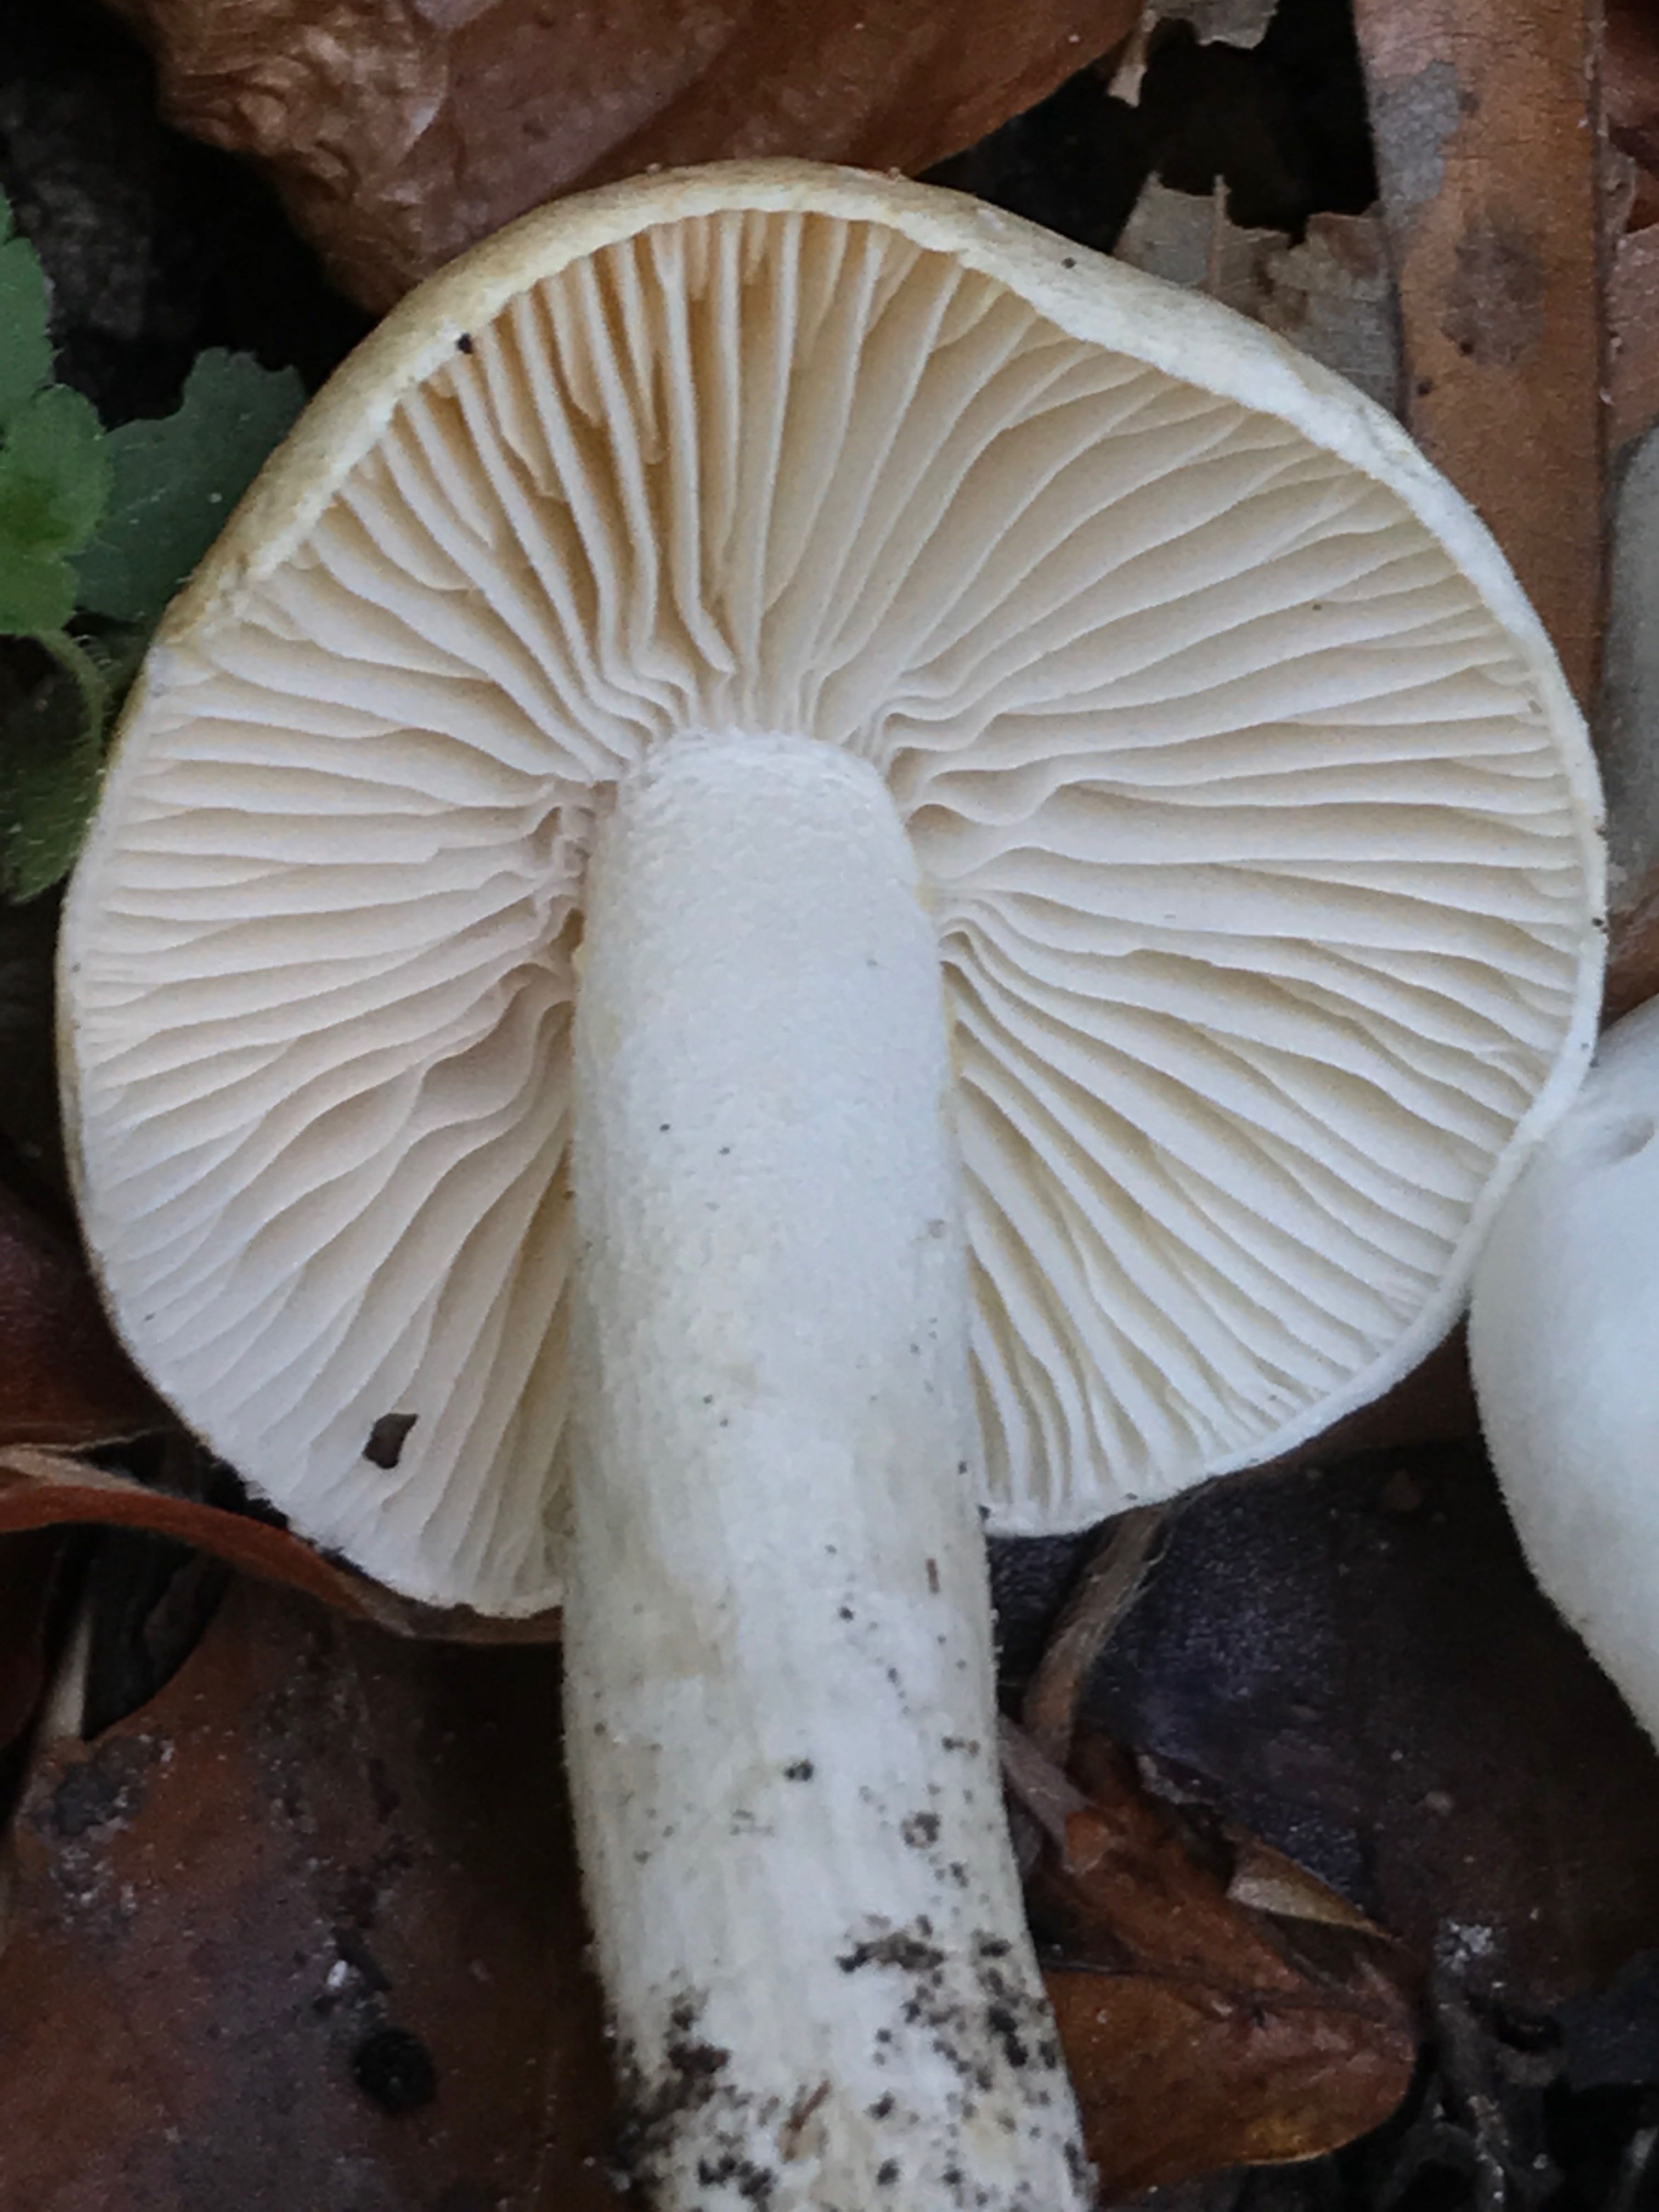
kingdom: Fungi
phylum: Basidiomycota
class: Agaricomycetes
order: Agaricales
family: Hygrophoraceae
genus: Hygrophorus
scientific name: Hygrophorus eburneus
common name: elfenbens-sneglehat
